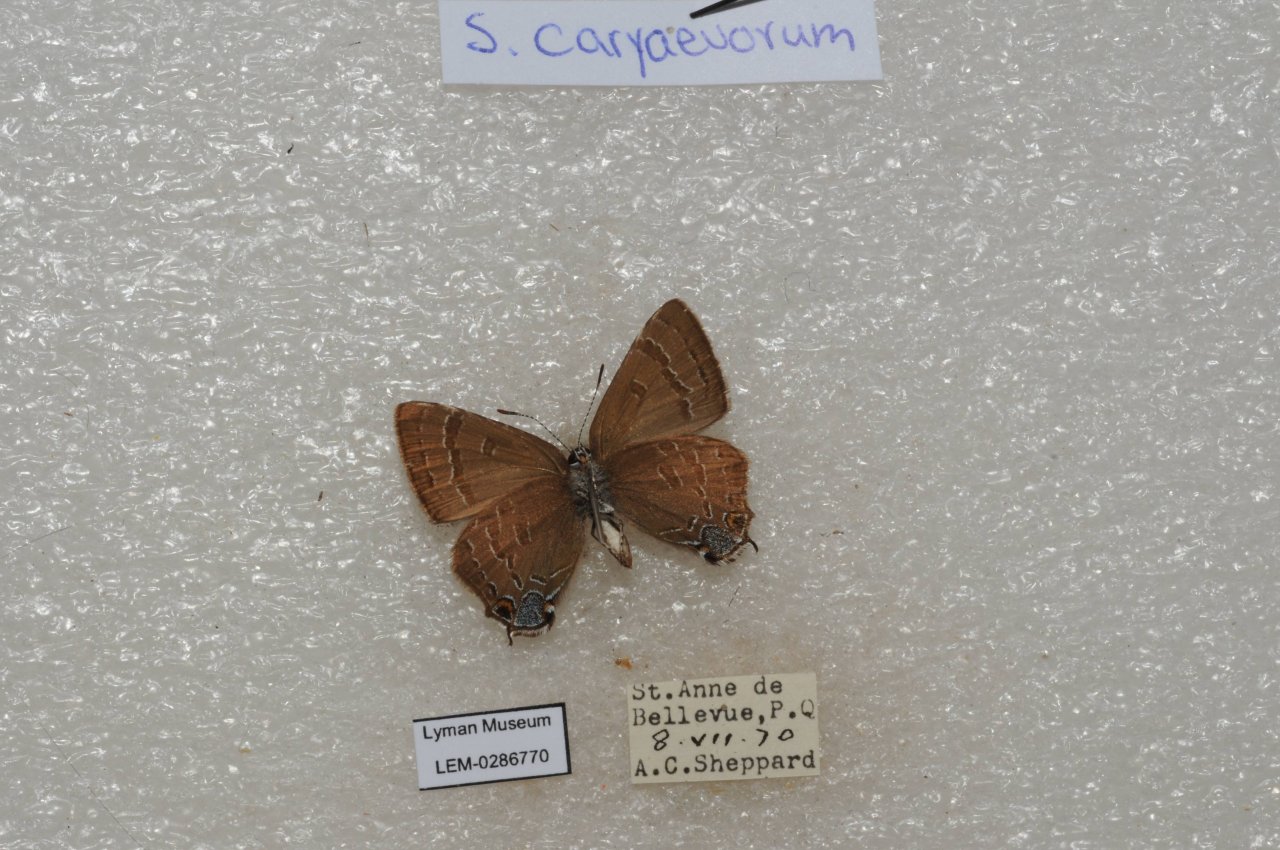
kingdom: Animalia
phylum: Arthropoda
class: Insecta
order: Lepidoptera
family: Lycaenidae
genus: Strymon
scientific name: Strymon caryaevorus
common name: Hickory Hairstreak
